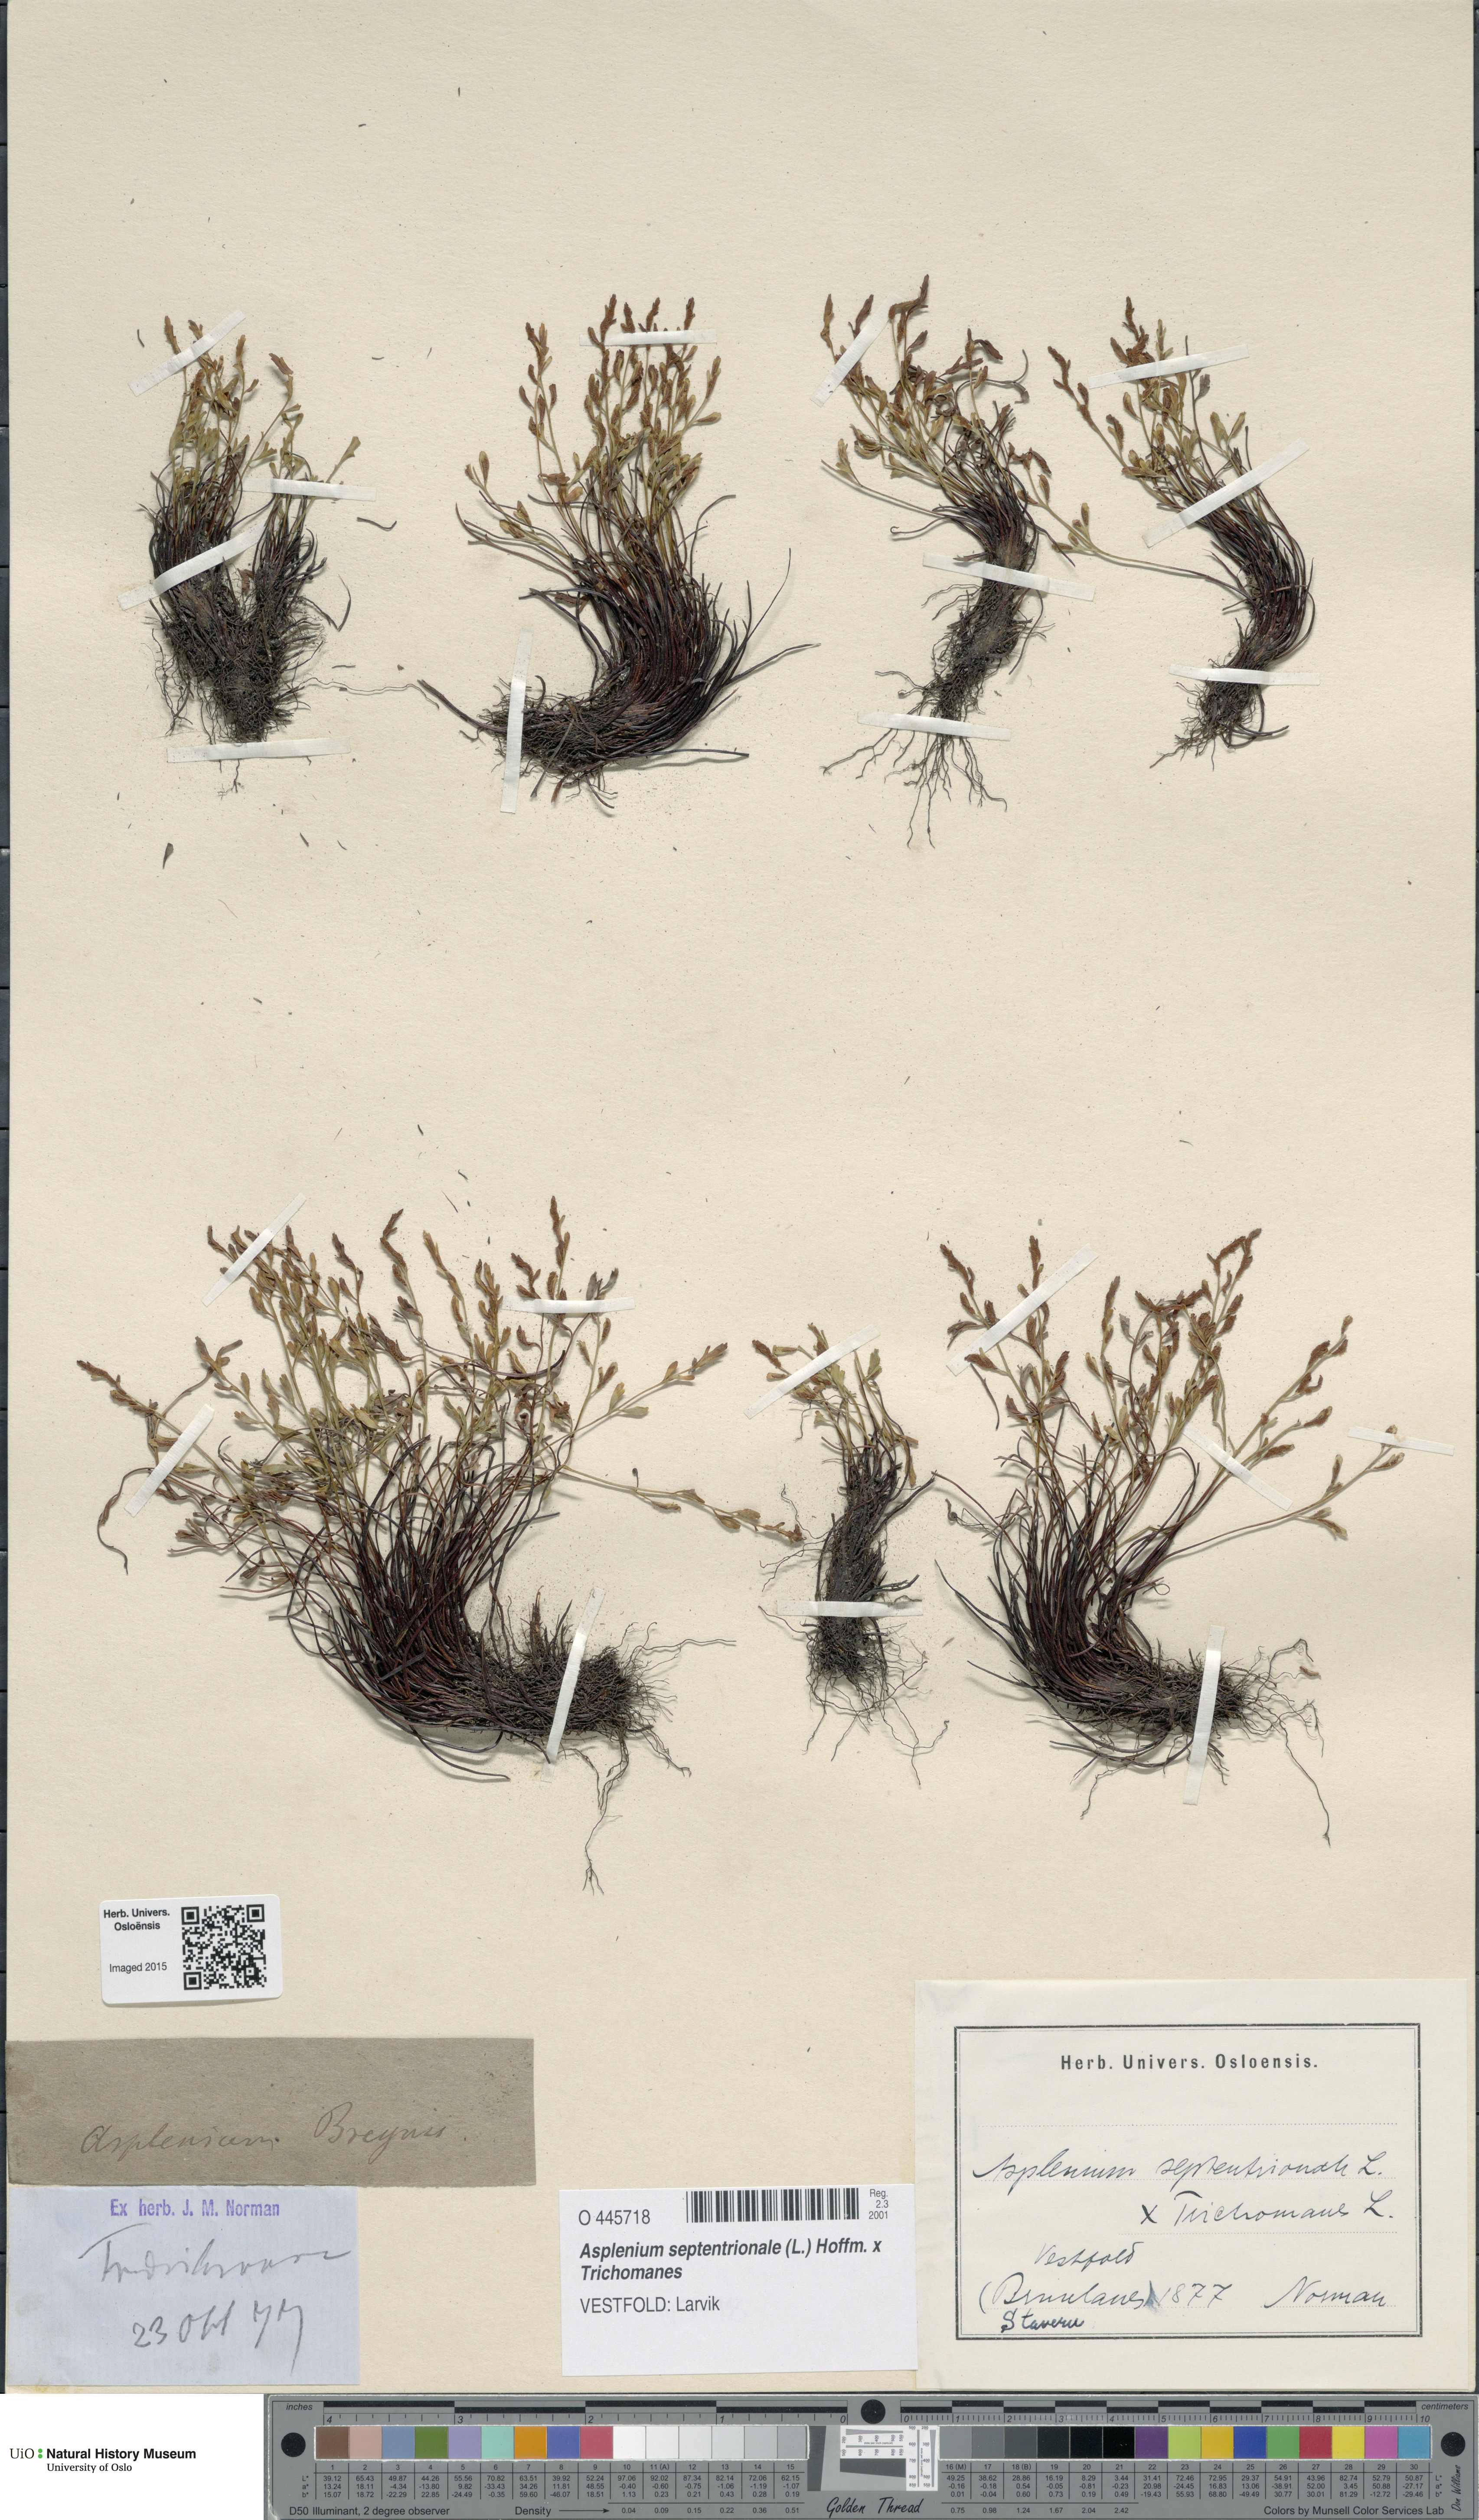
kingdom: Plantae
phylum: Tracheophyta
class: Polypodiopsida
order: Polypodiales
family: Aspleniaceae
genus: Asplenium
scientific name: Asplenium
